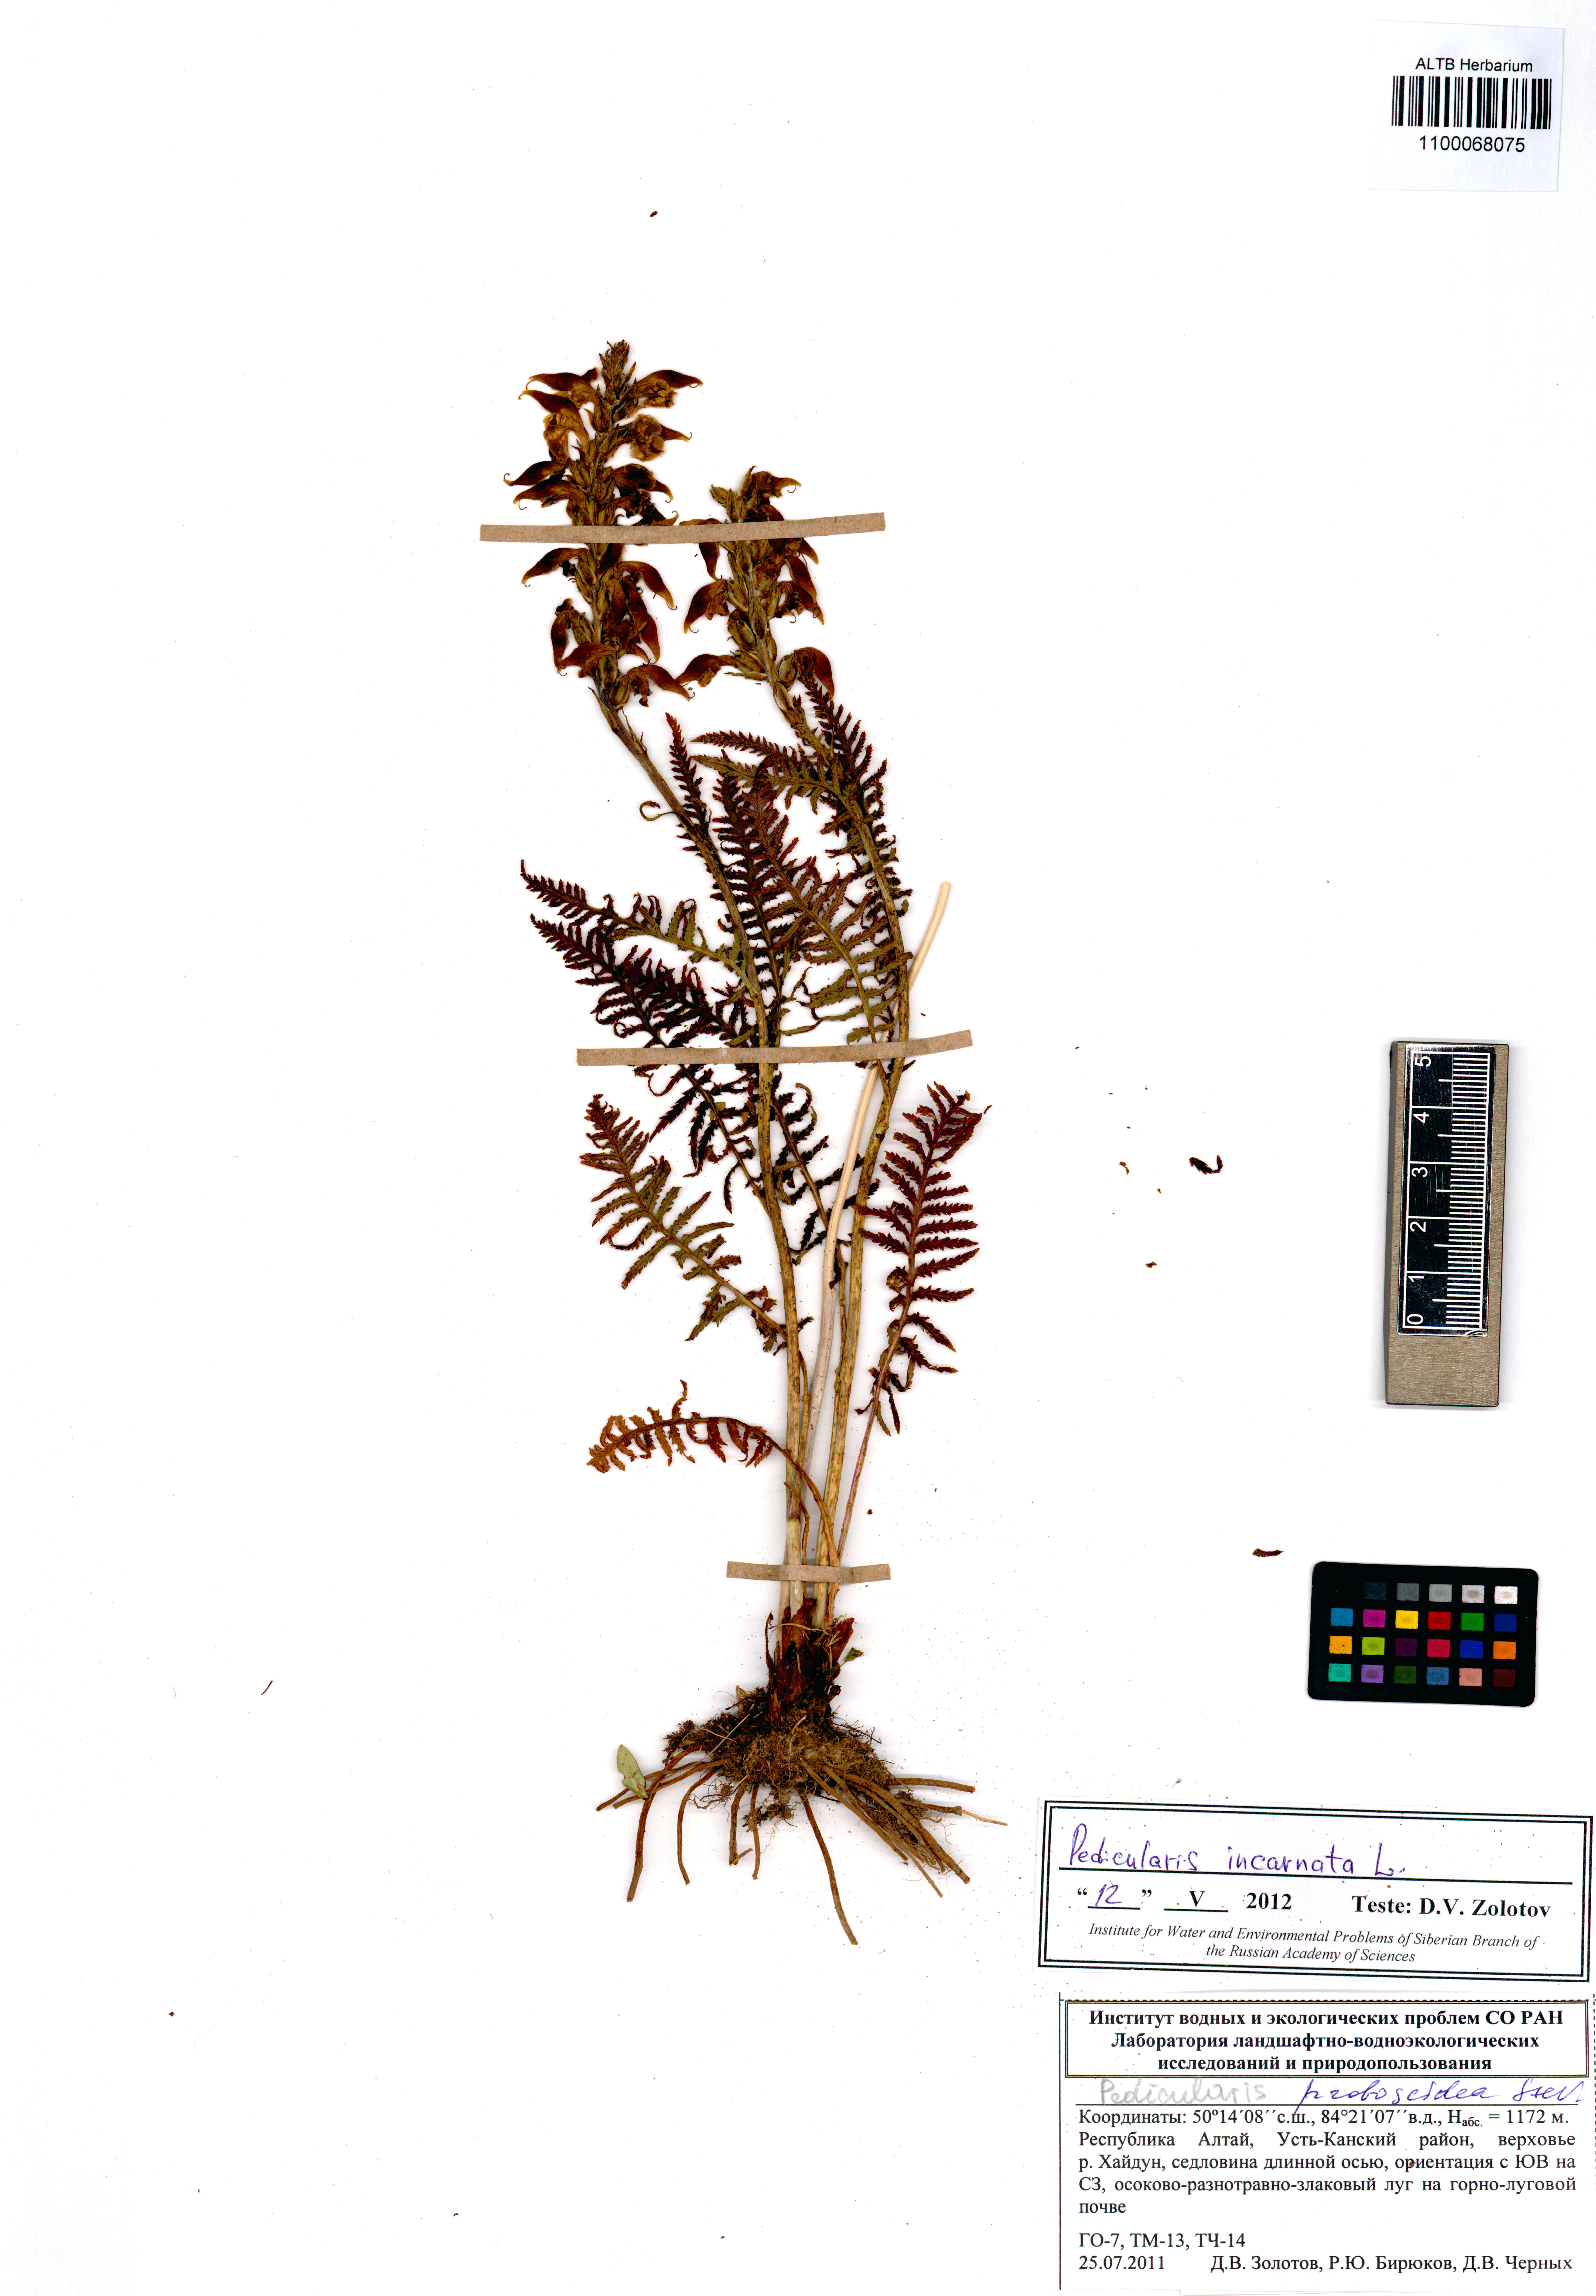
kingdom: Plantae
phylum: Tracheophyta
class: Magnoliopsida
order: Lamiales
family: Orobanchaceae
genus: Pedicularis
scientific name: Pedicularis incarnata
